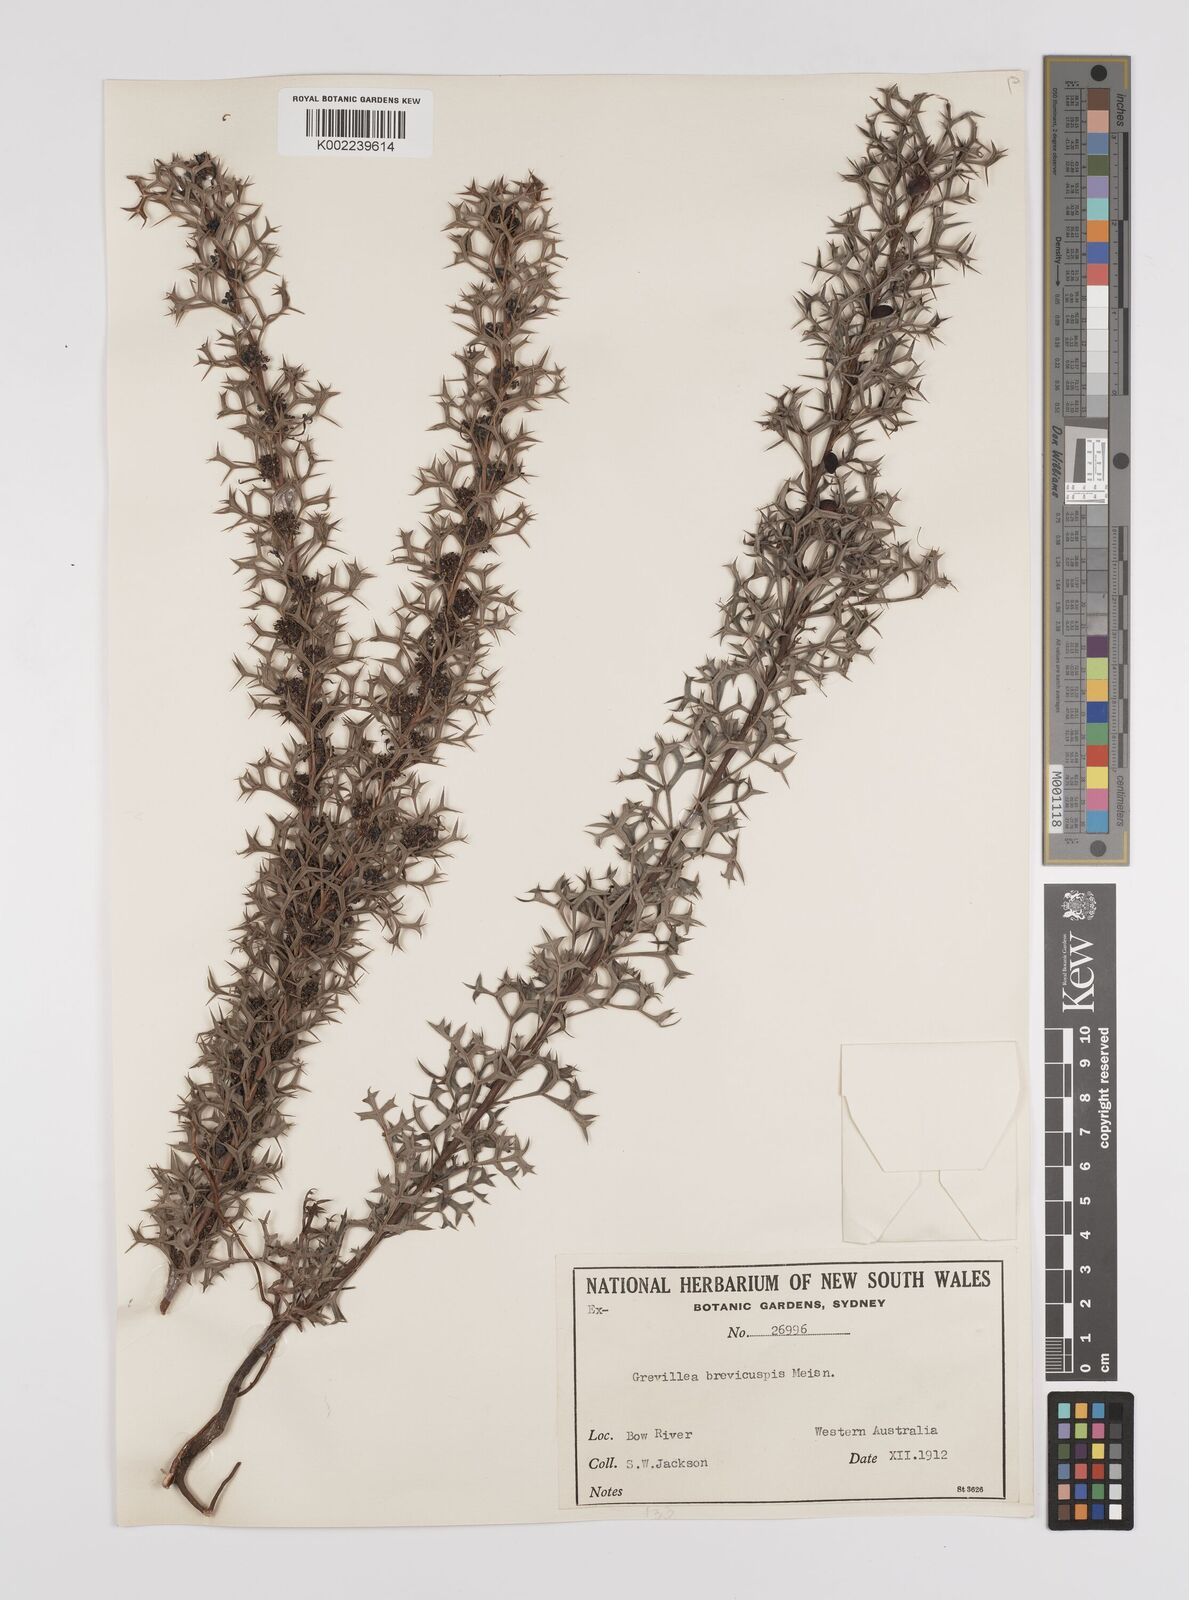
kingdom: Plantae
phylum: Tracheophyta
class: Magnoliopsida
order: Proteales
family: Proteaceae
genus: Grevillea
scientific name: Grevillea trifida
